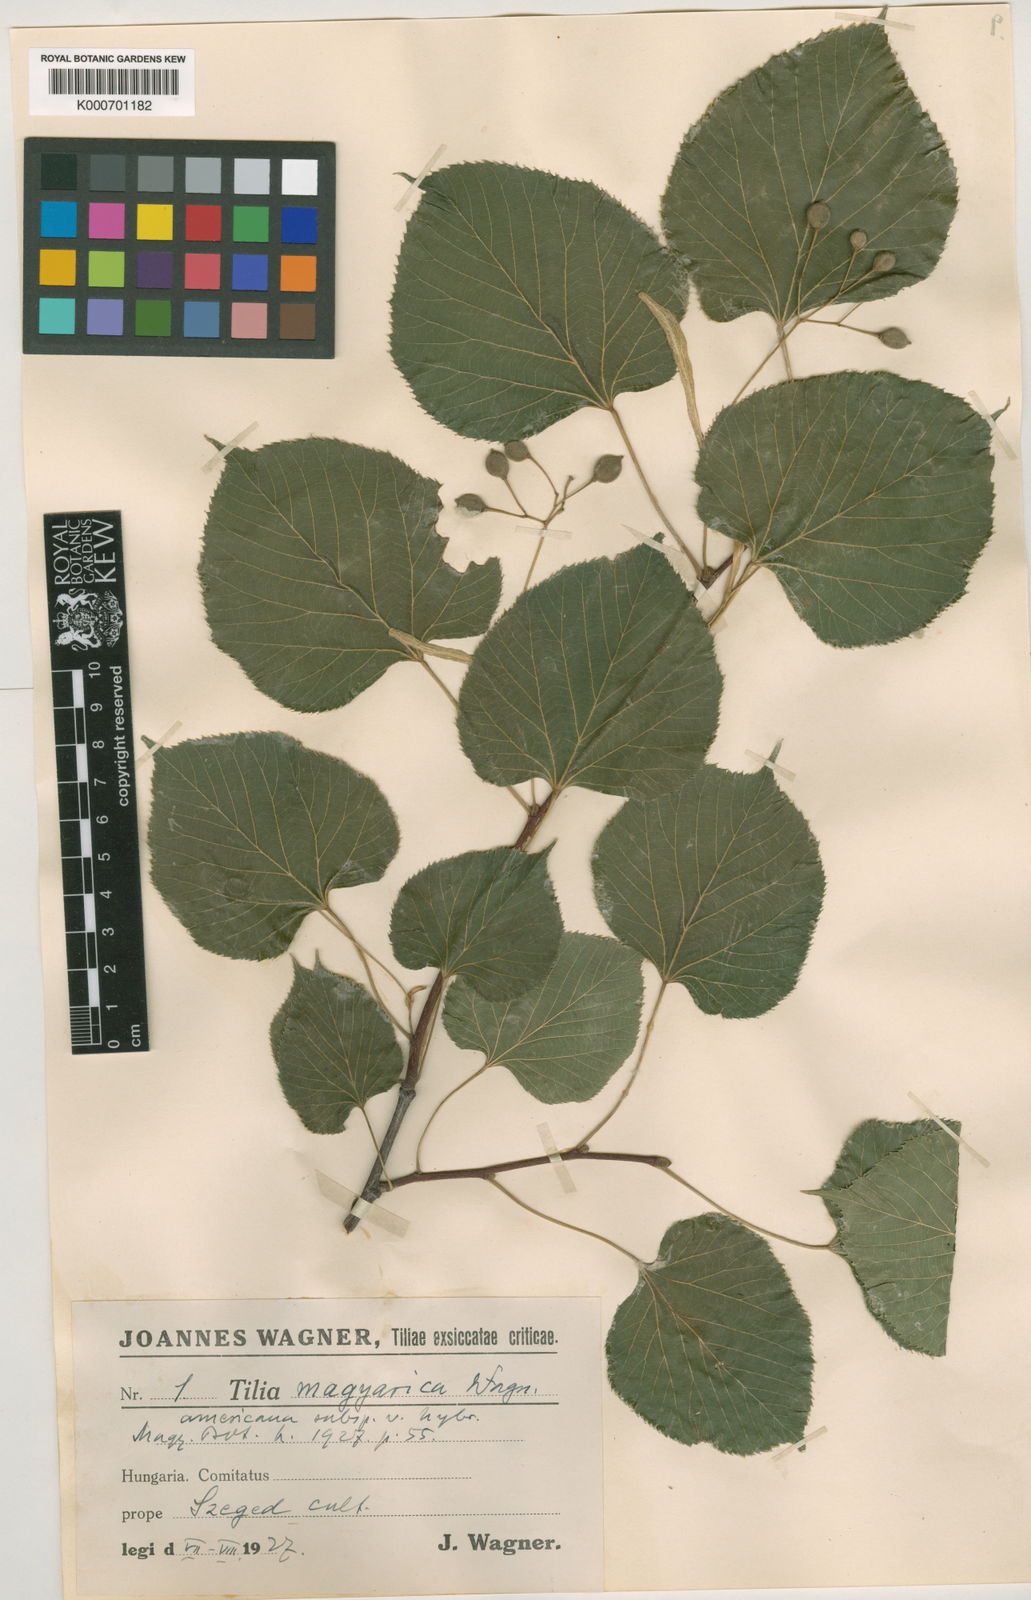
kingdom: Plantae
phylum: Tracheophyta
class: Magnoliopsida
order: Malvales
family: Malvaceae
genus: Tilia
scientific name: Tilia platyphyllos
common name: Large-leaved lime
